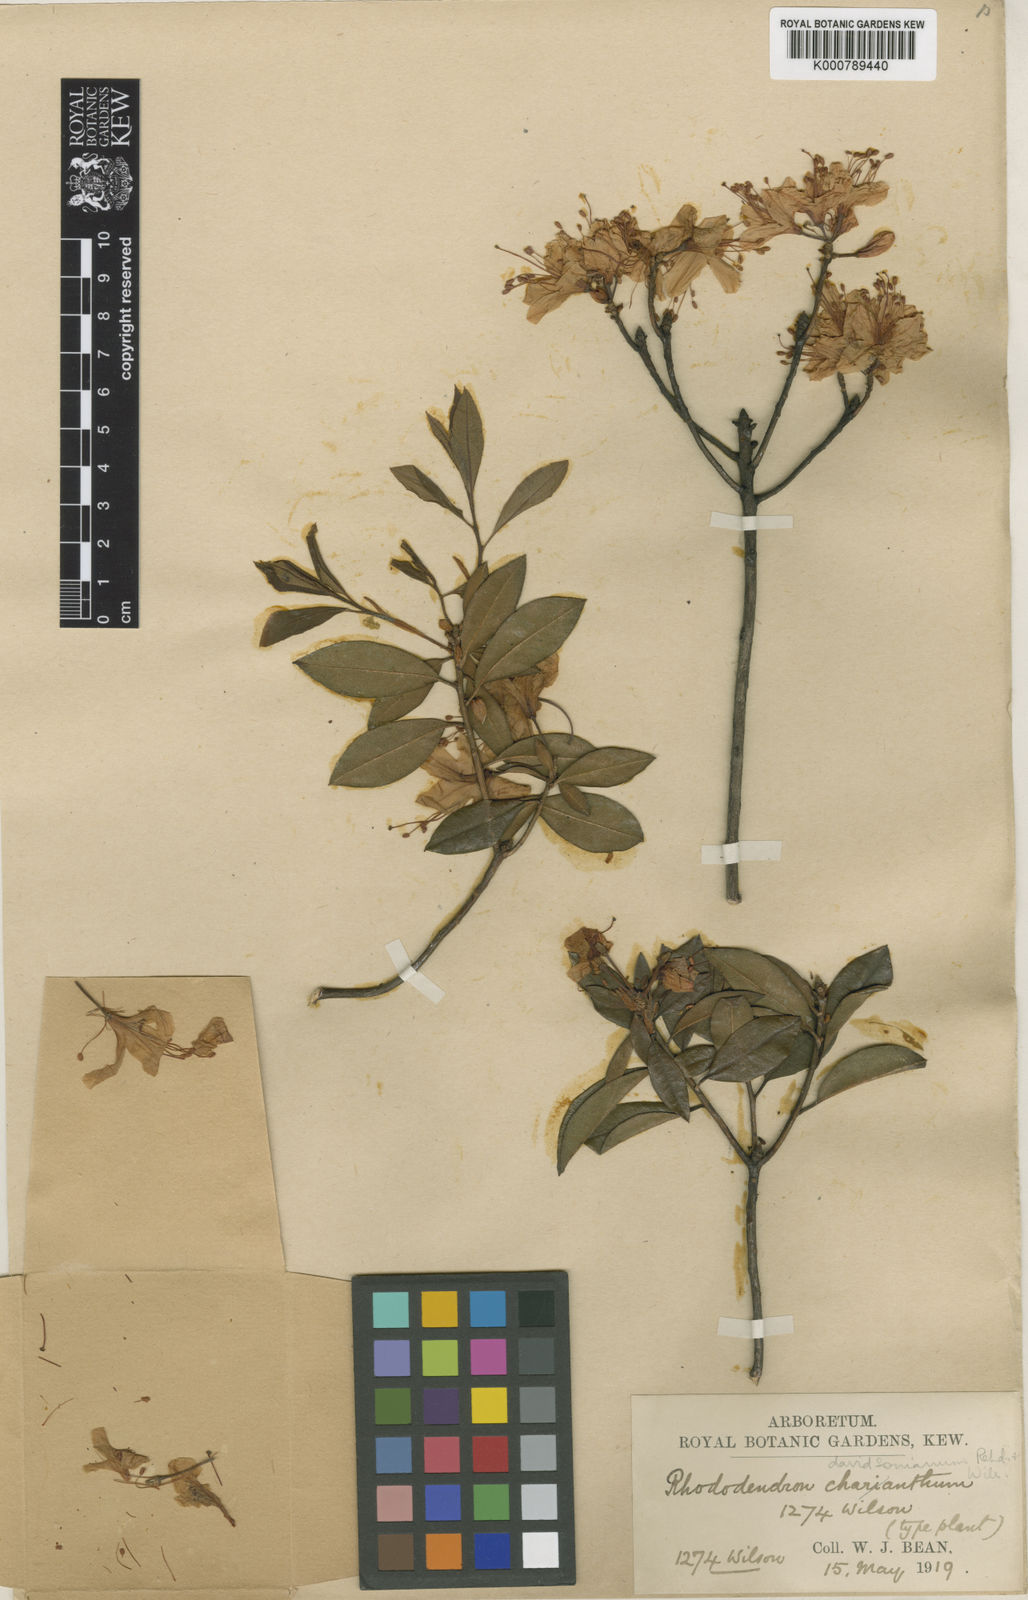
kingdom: Plantae
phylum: Tracheophyta
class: Magnoliopsida
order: Ericales
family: Ericaceae
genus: Rhododendron
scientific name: Rhododendron
